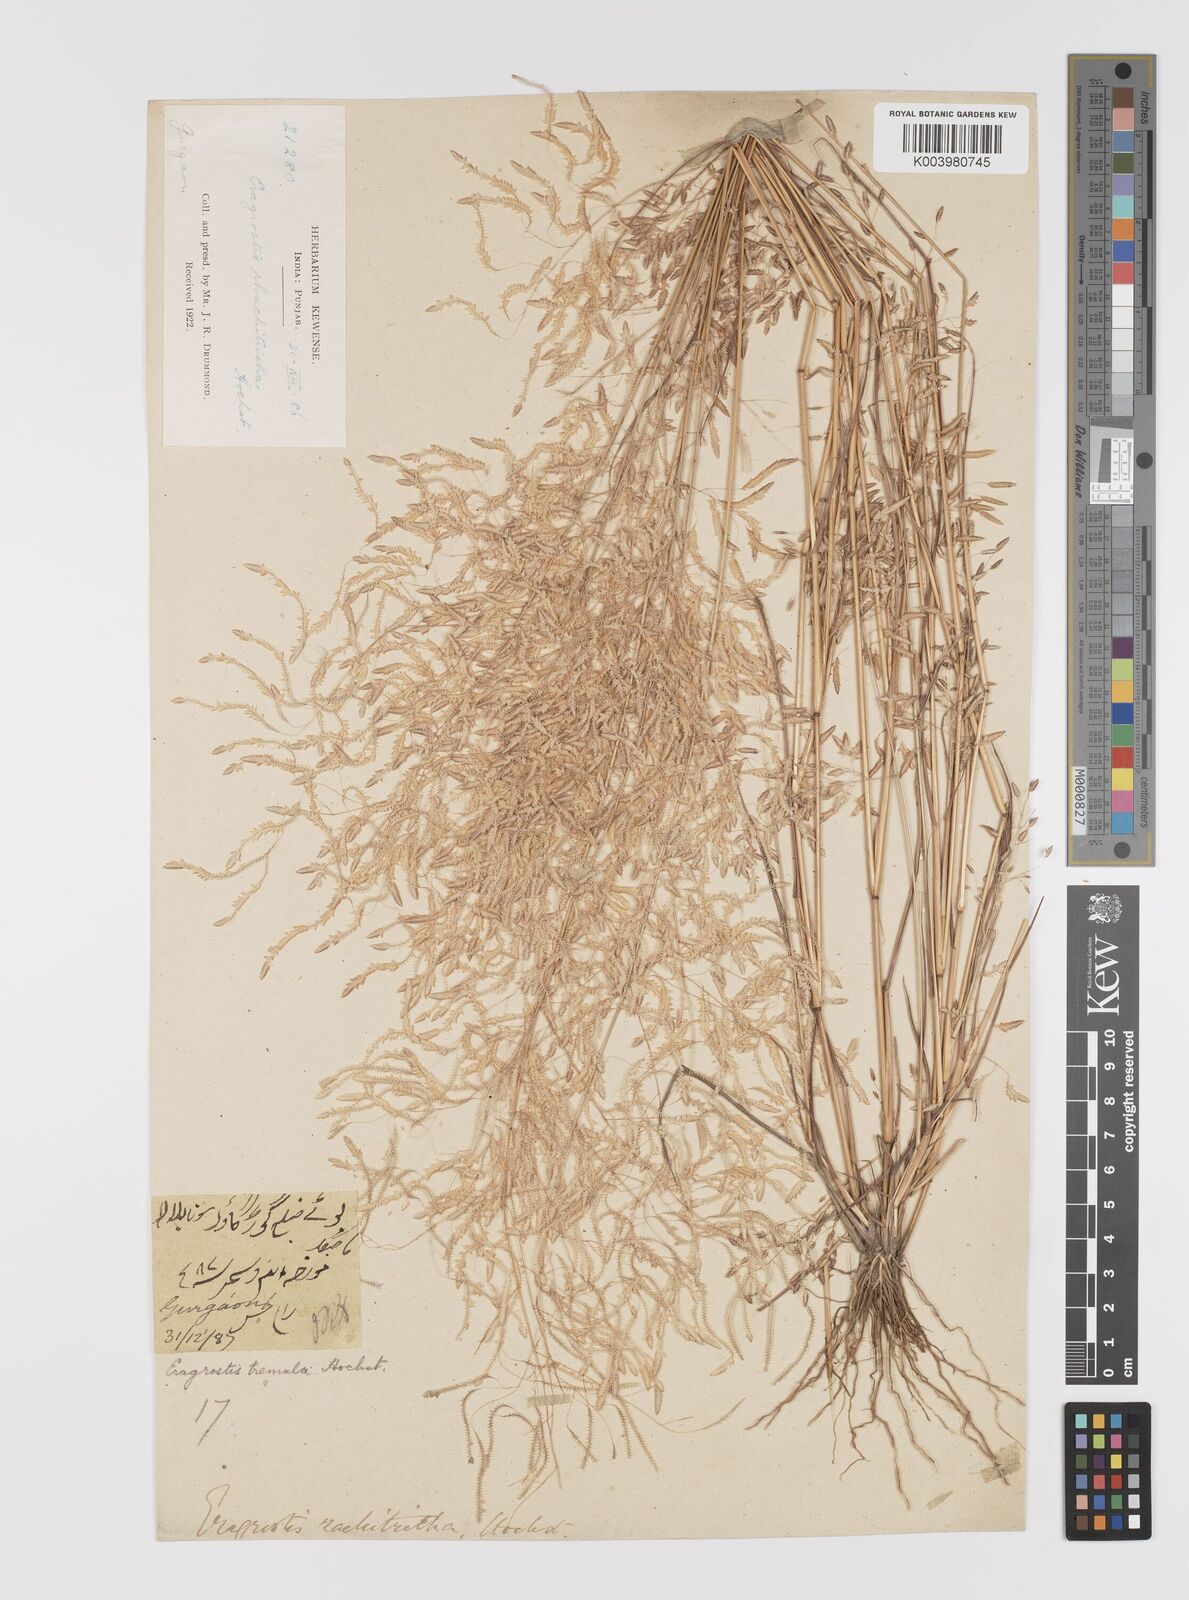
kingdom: Plantae
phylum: Tracheophyta
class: Liliopsida
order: Poales
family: Poaceae
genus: Eragrostis
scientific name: Eragrostis tremula
